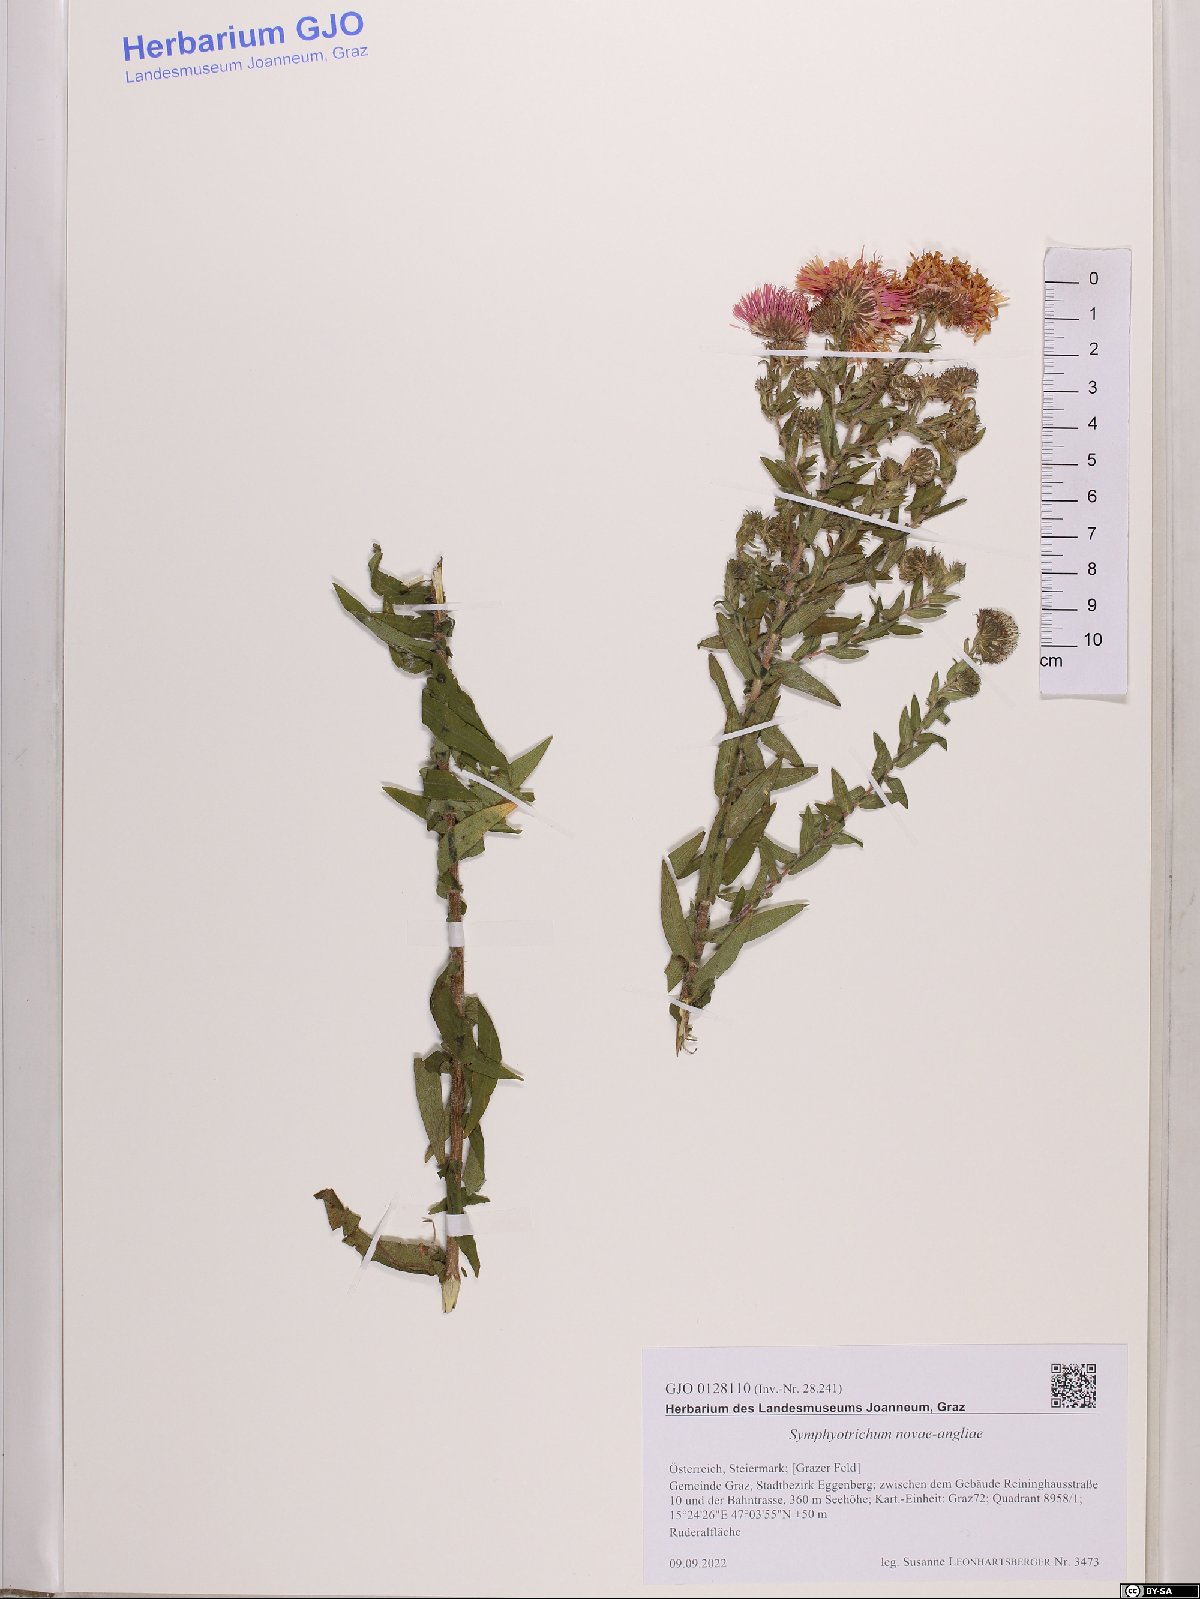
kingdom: Plantae
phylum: Tracheophyta
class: Magnoliopsida
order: Asterales
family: Asteraceae
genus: Symphyotrichum
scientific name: Symphyotrichum novae-angliae
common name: Michaelmas daisy
